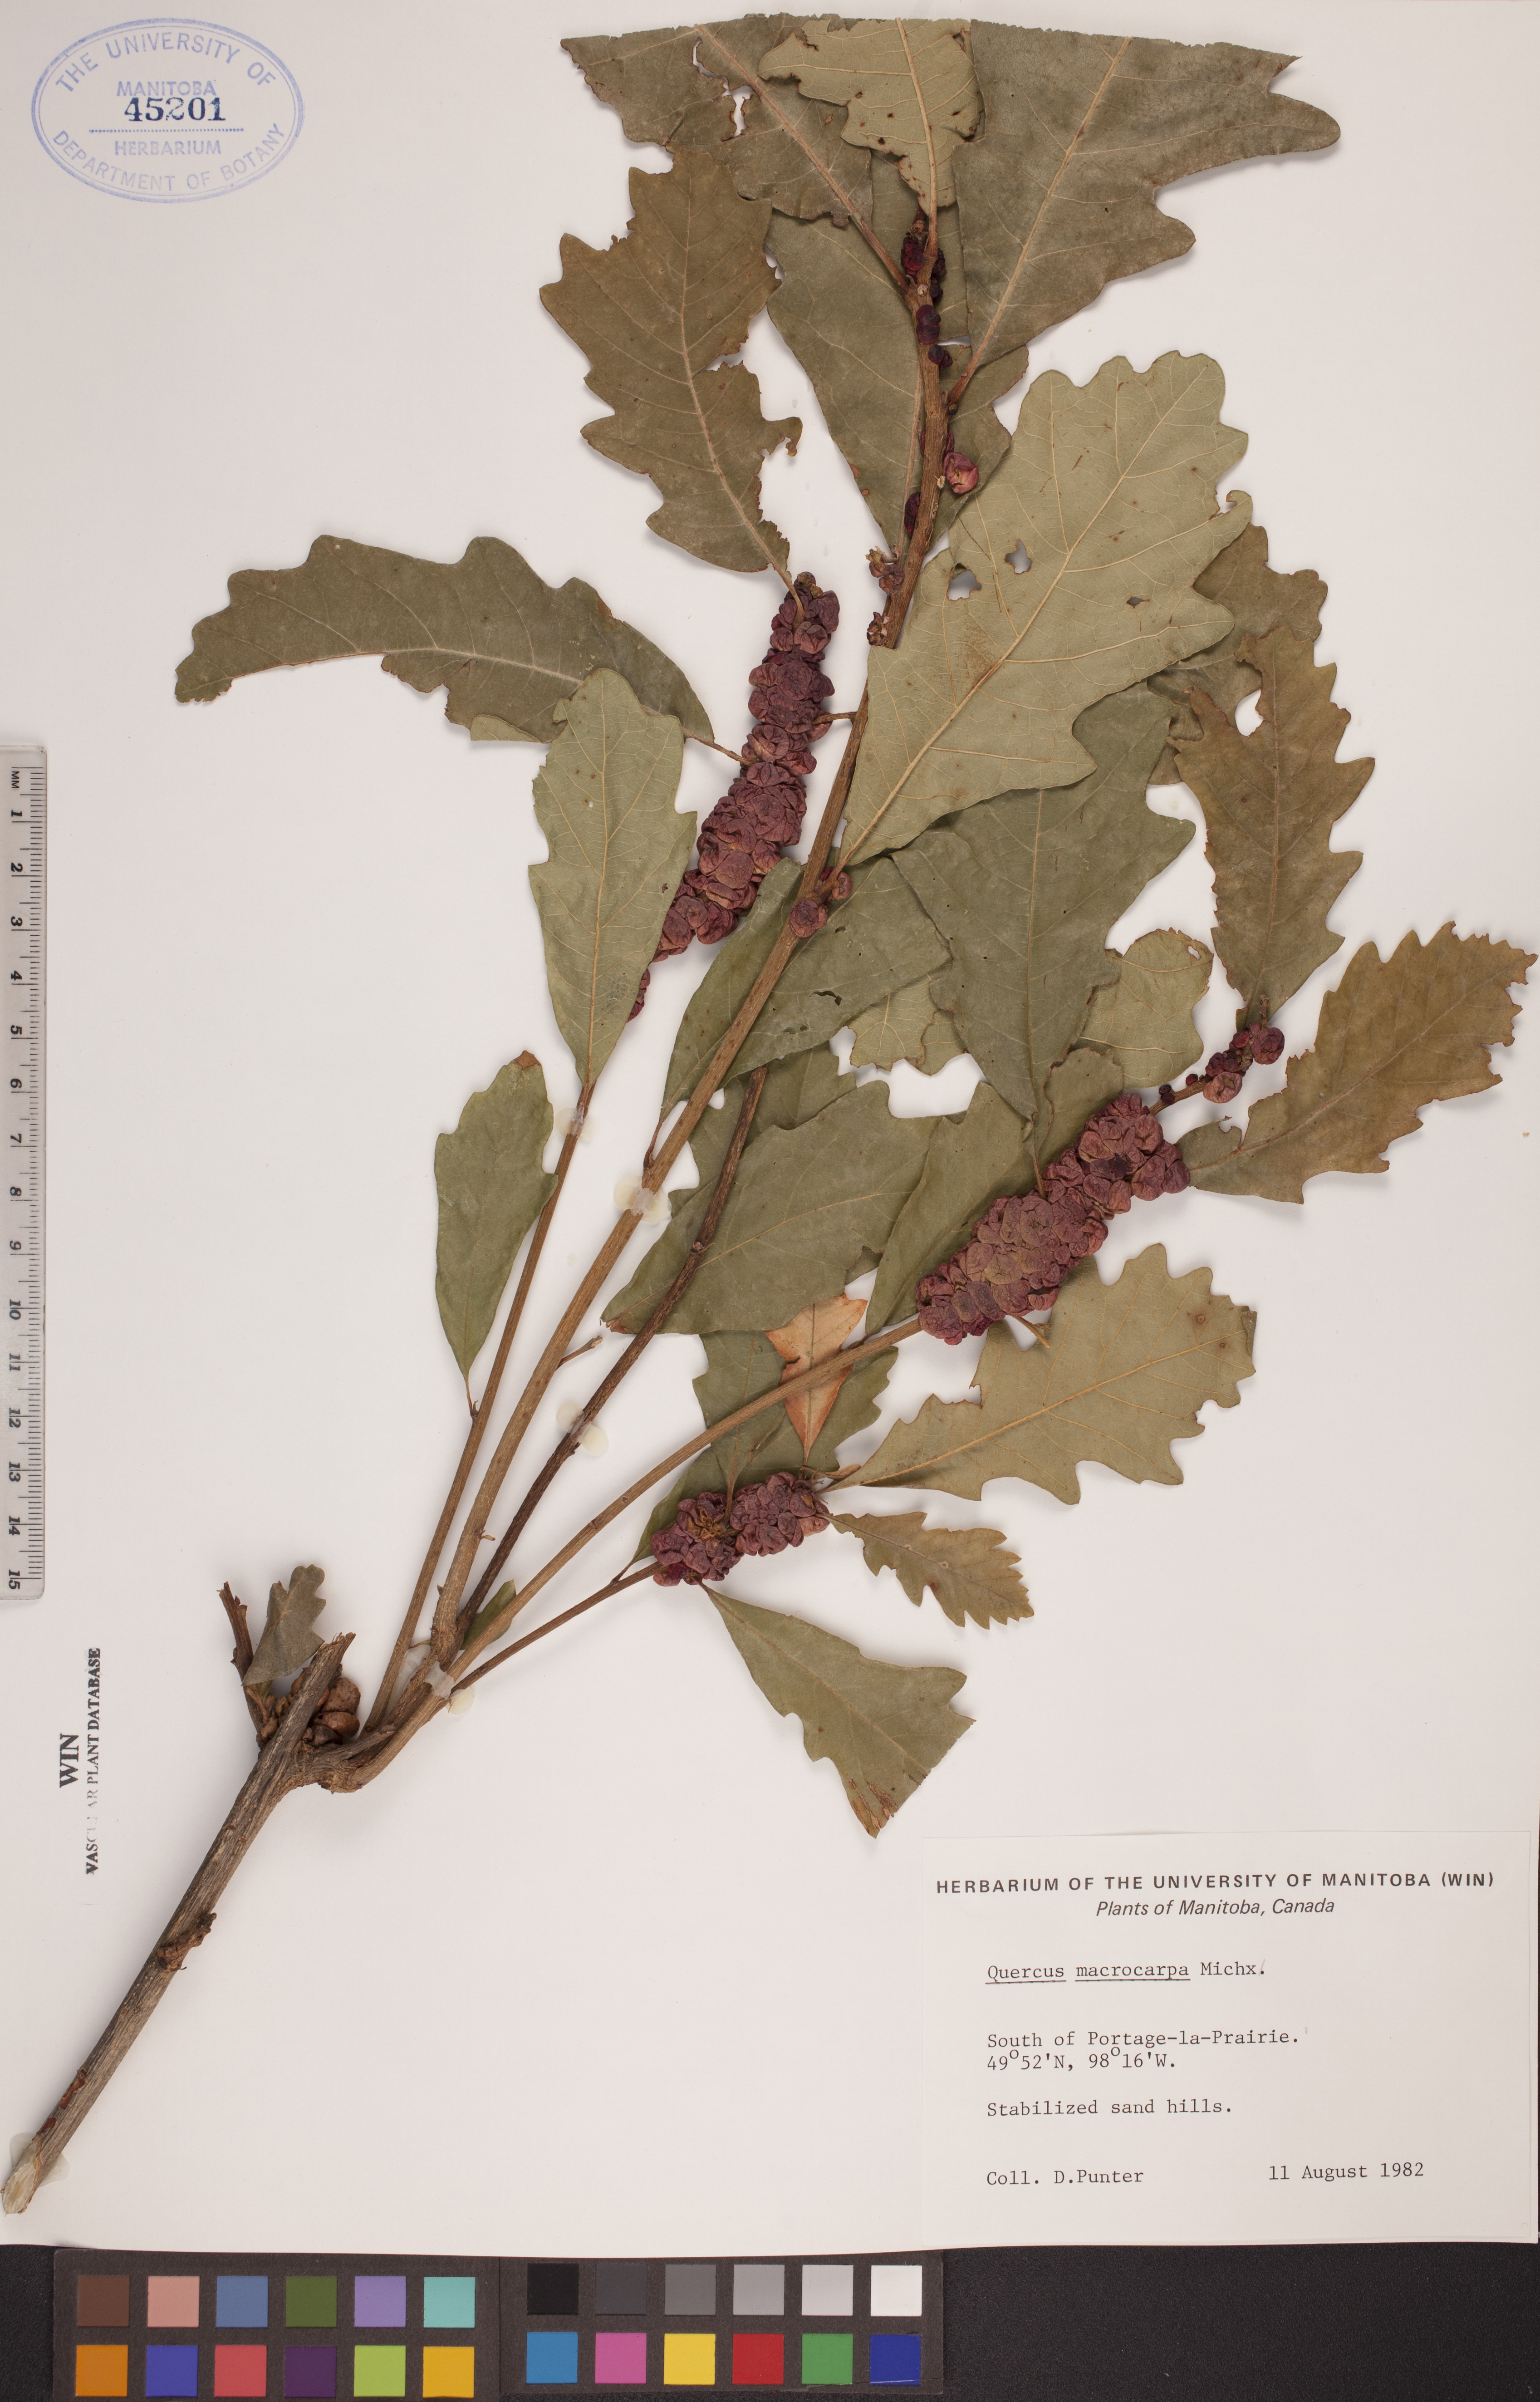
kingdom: Plantae
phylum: Tracheophyta
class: Magnoliopsida
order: Fagales
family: Fagaceae
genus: Quercus
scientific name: Quercus macrocarpa
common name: Bur oak
